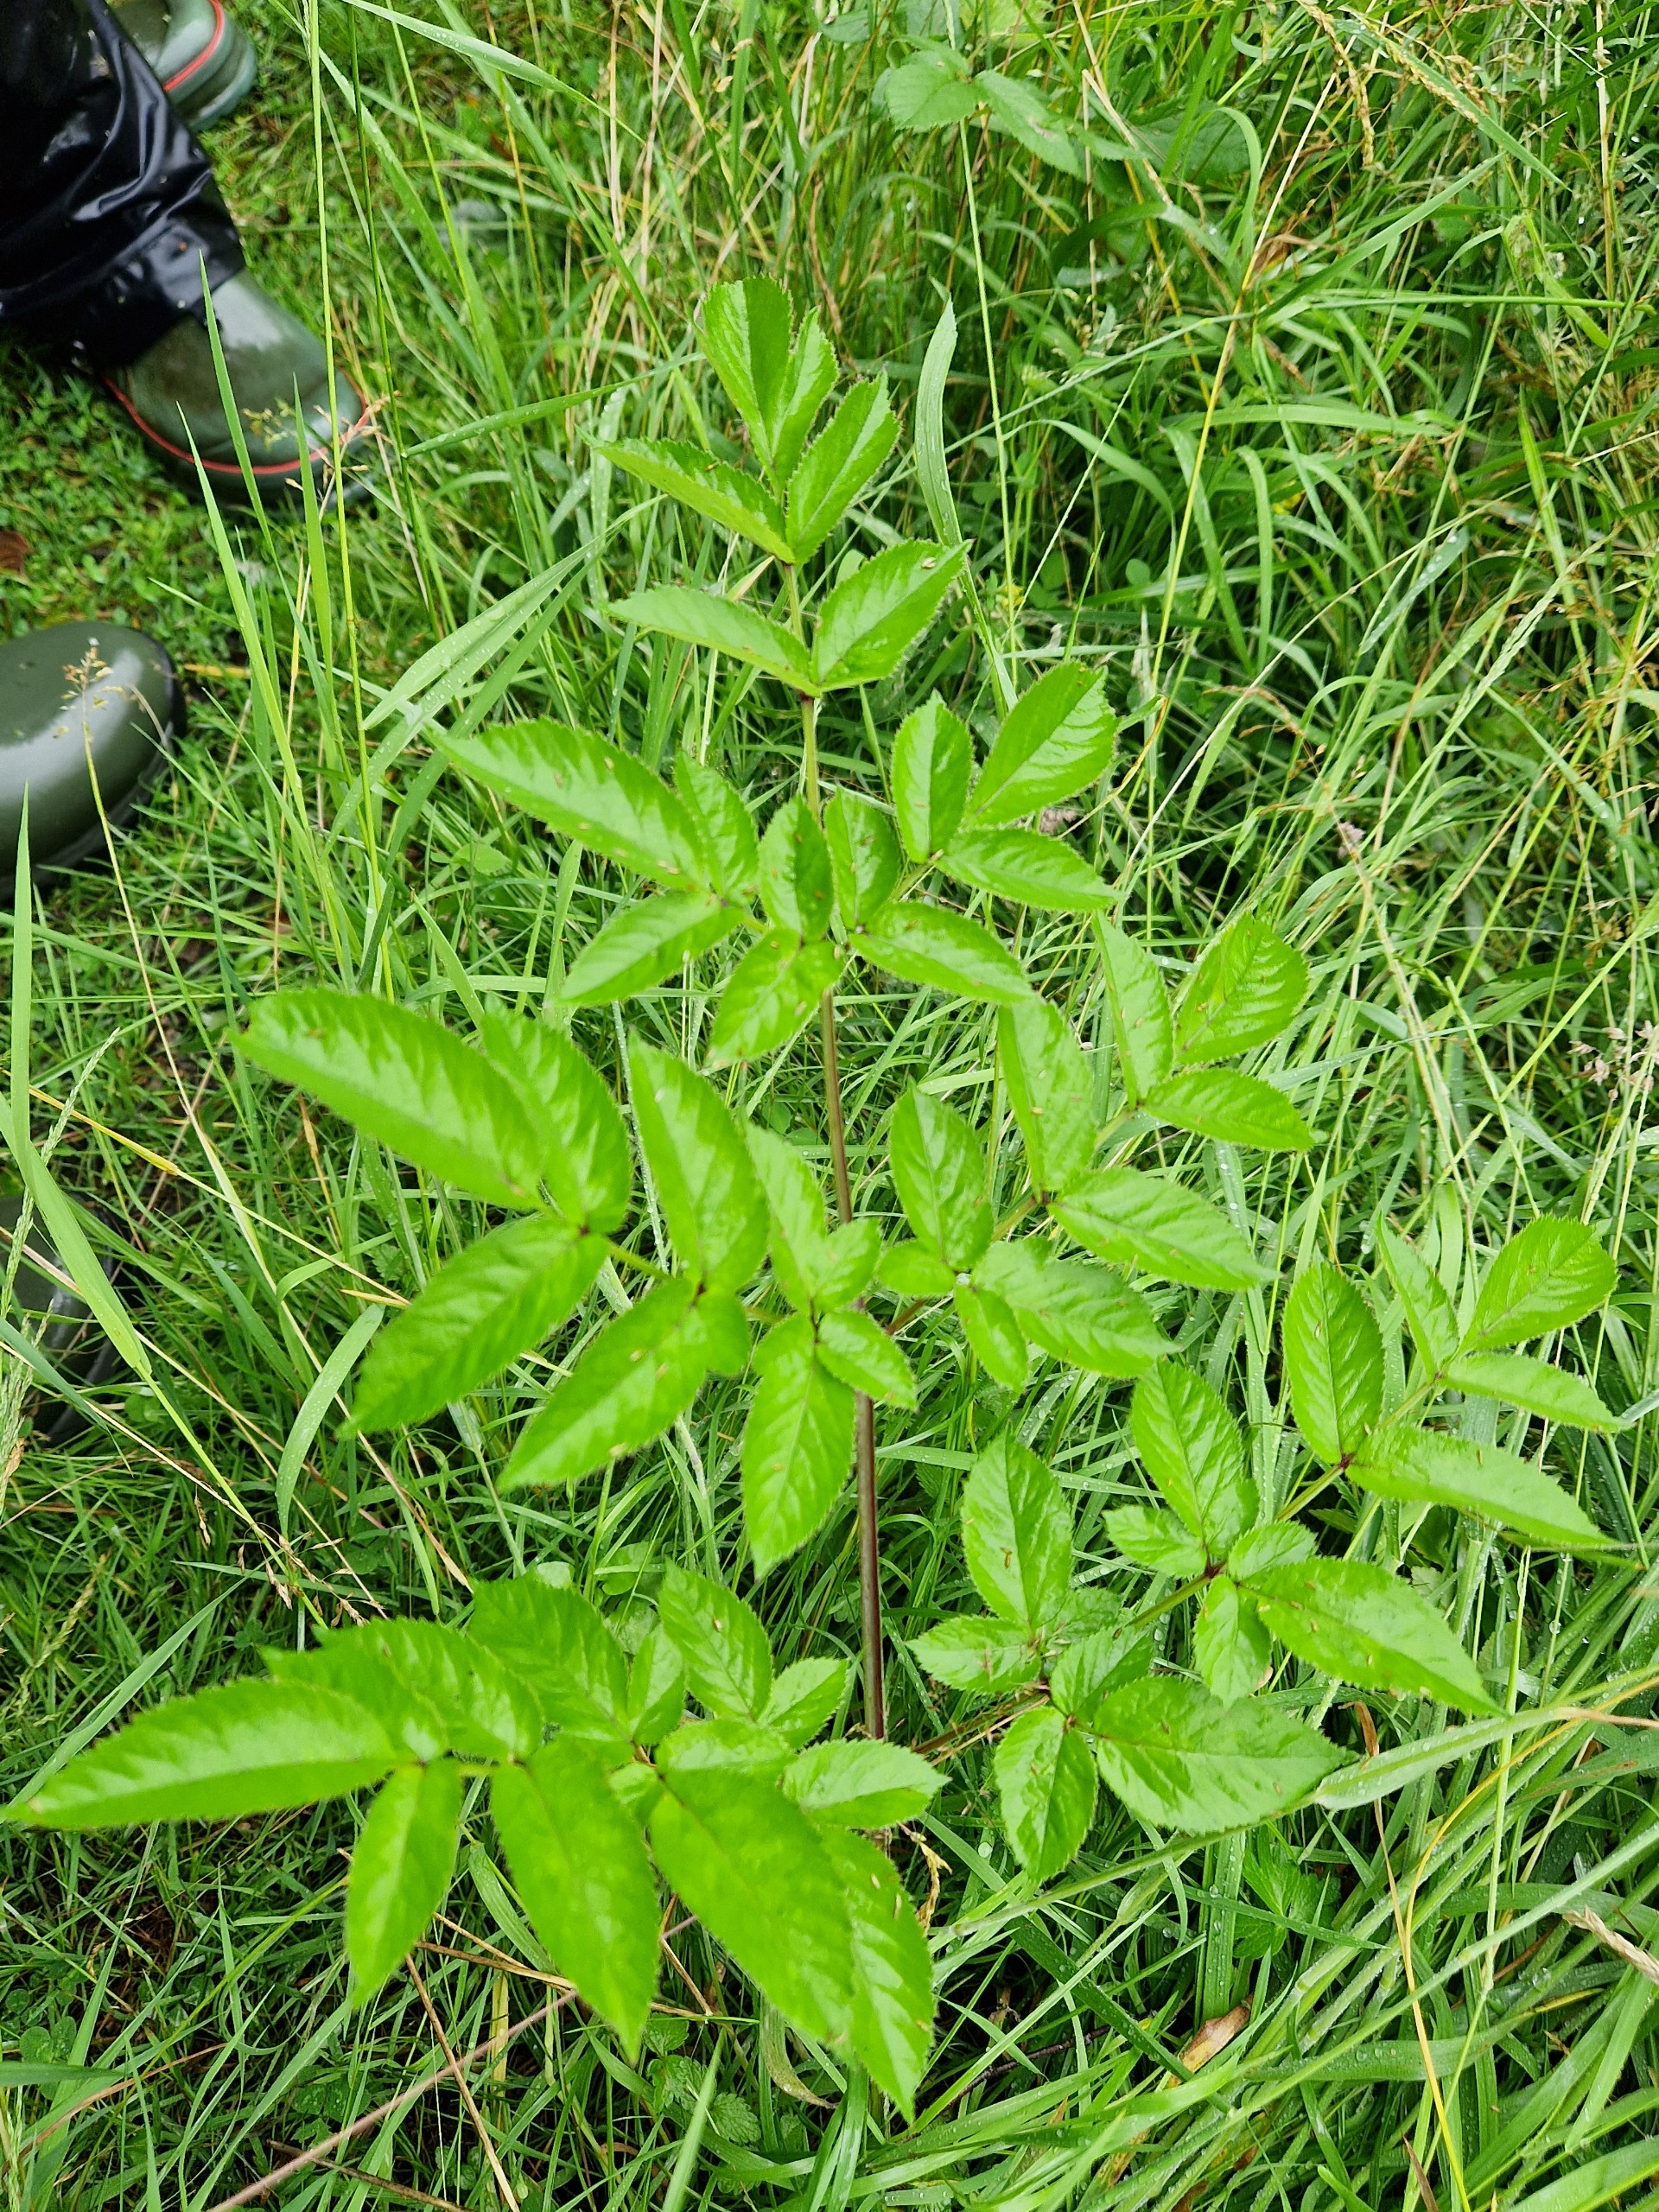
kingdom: Plantae
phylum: Tracheophyta
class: Magnoliopsida
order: Apiales
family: Apiaceae
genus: Angelica
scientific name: Angelica sylvestris
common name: Angelik
